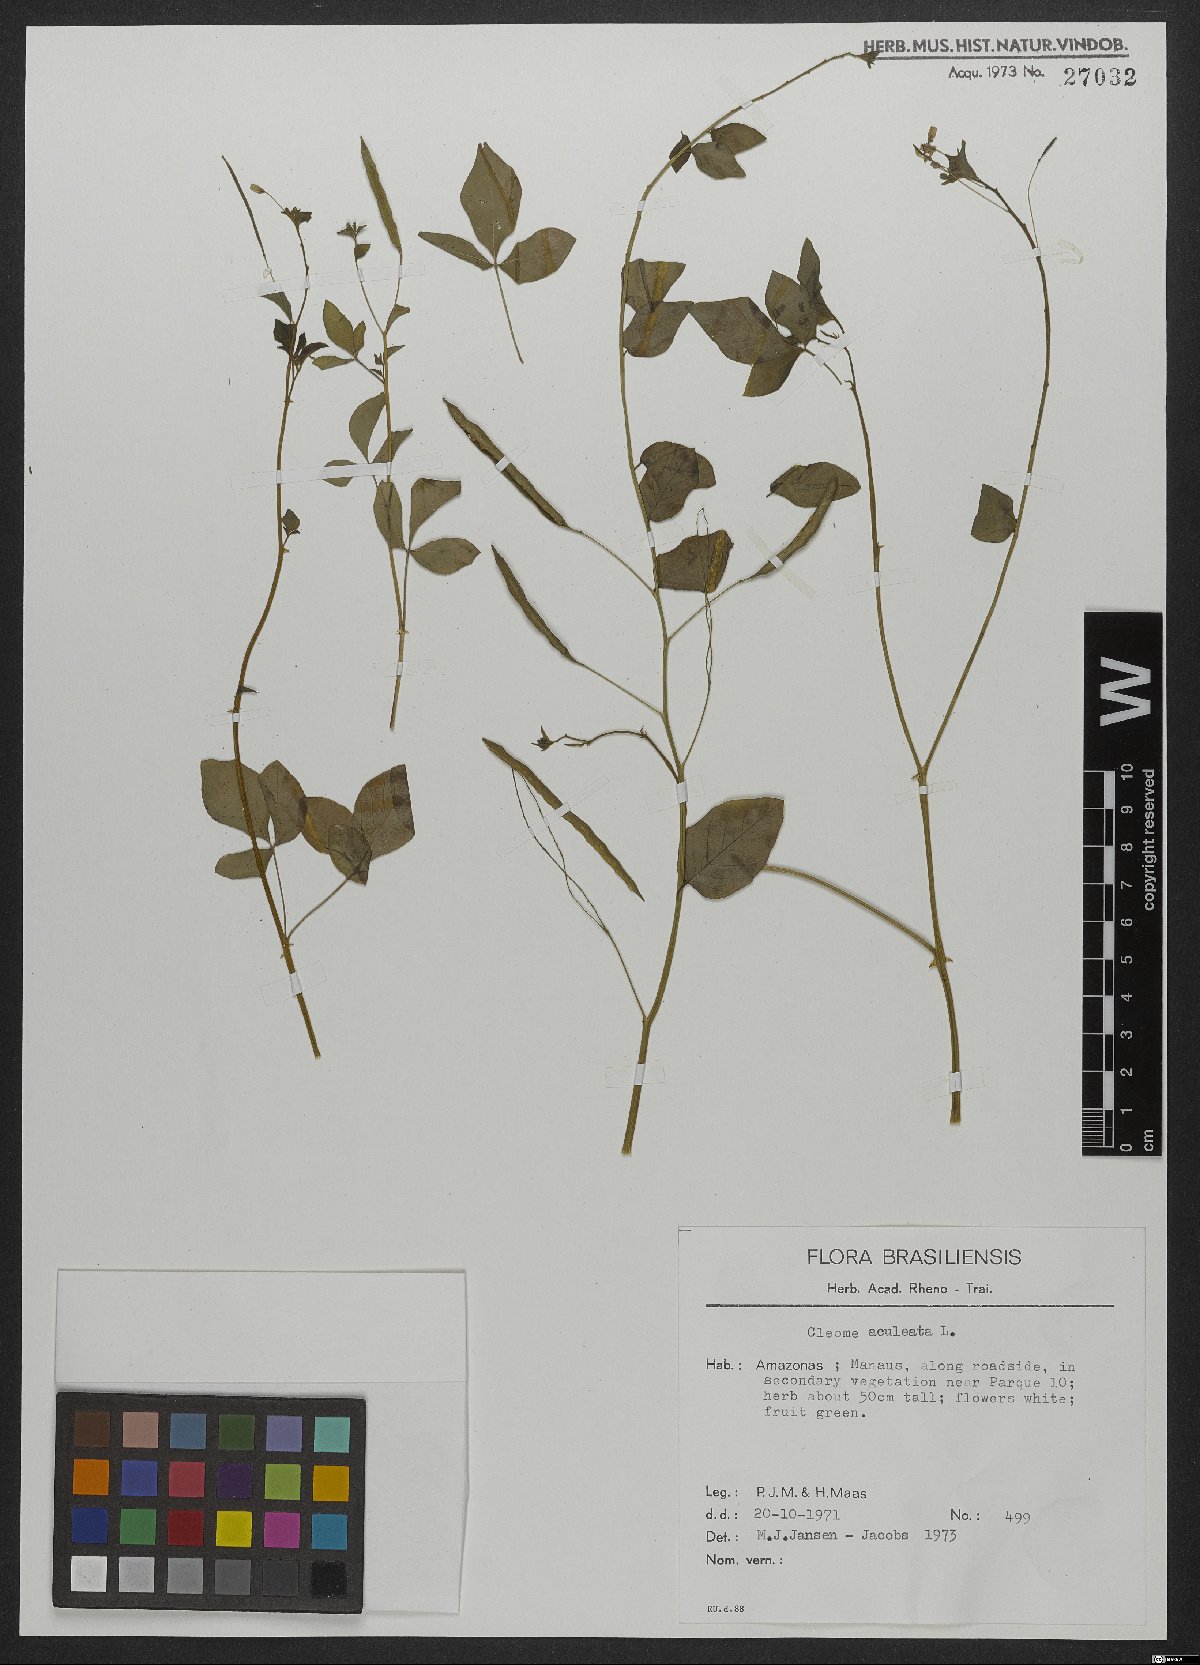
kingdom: Plantae
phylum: Tracheophyta
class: Magnoliopsida
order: Brassicales
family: Cleomaceae
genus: Tarenaya
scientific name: Tarenaya aculeata
